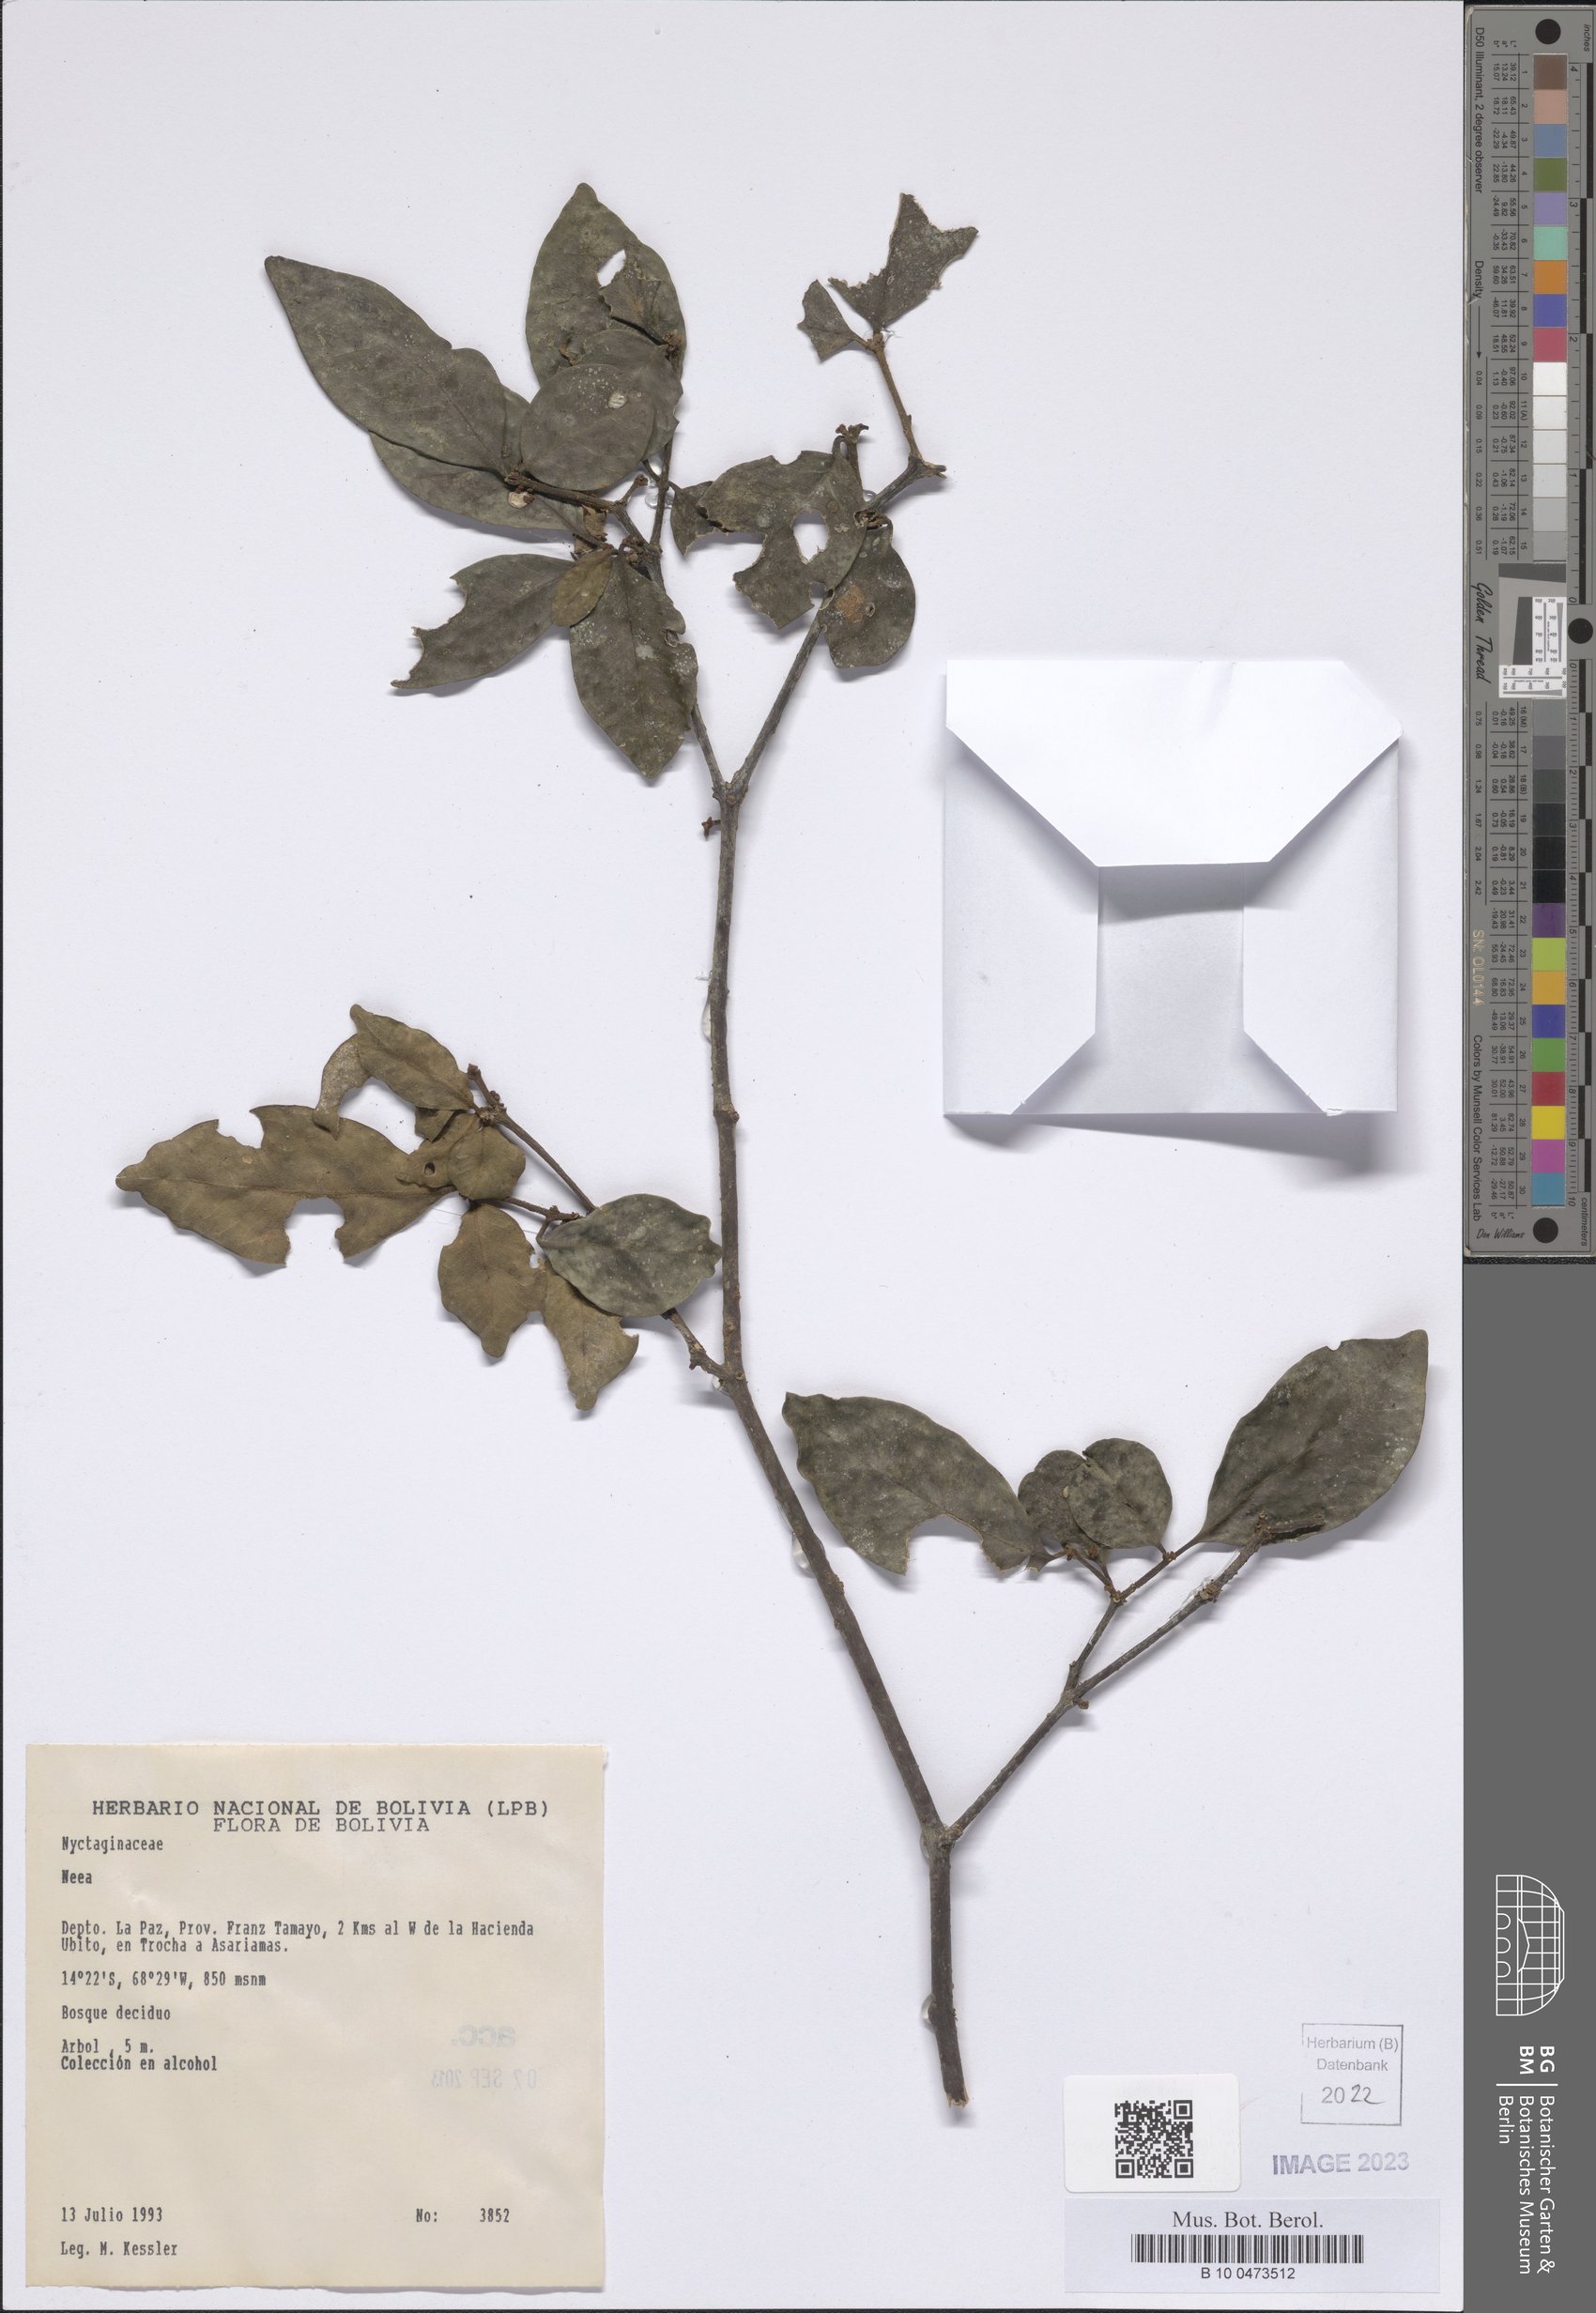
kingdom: Plantae
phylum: Tracheophyta
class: Magnoliopsida
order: Caryophyllales
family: Nyctaginaceae
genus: Neea
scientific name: Neea
